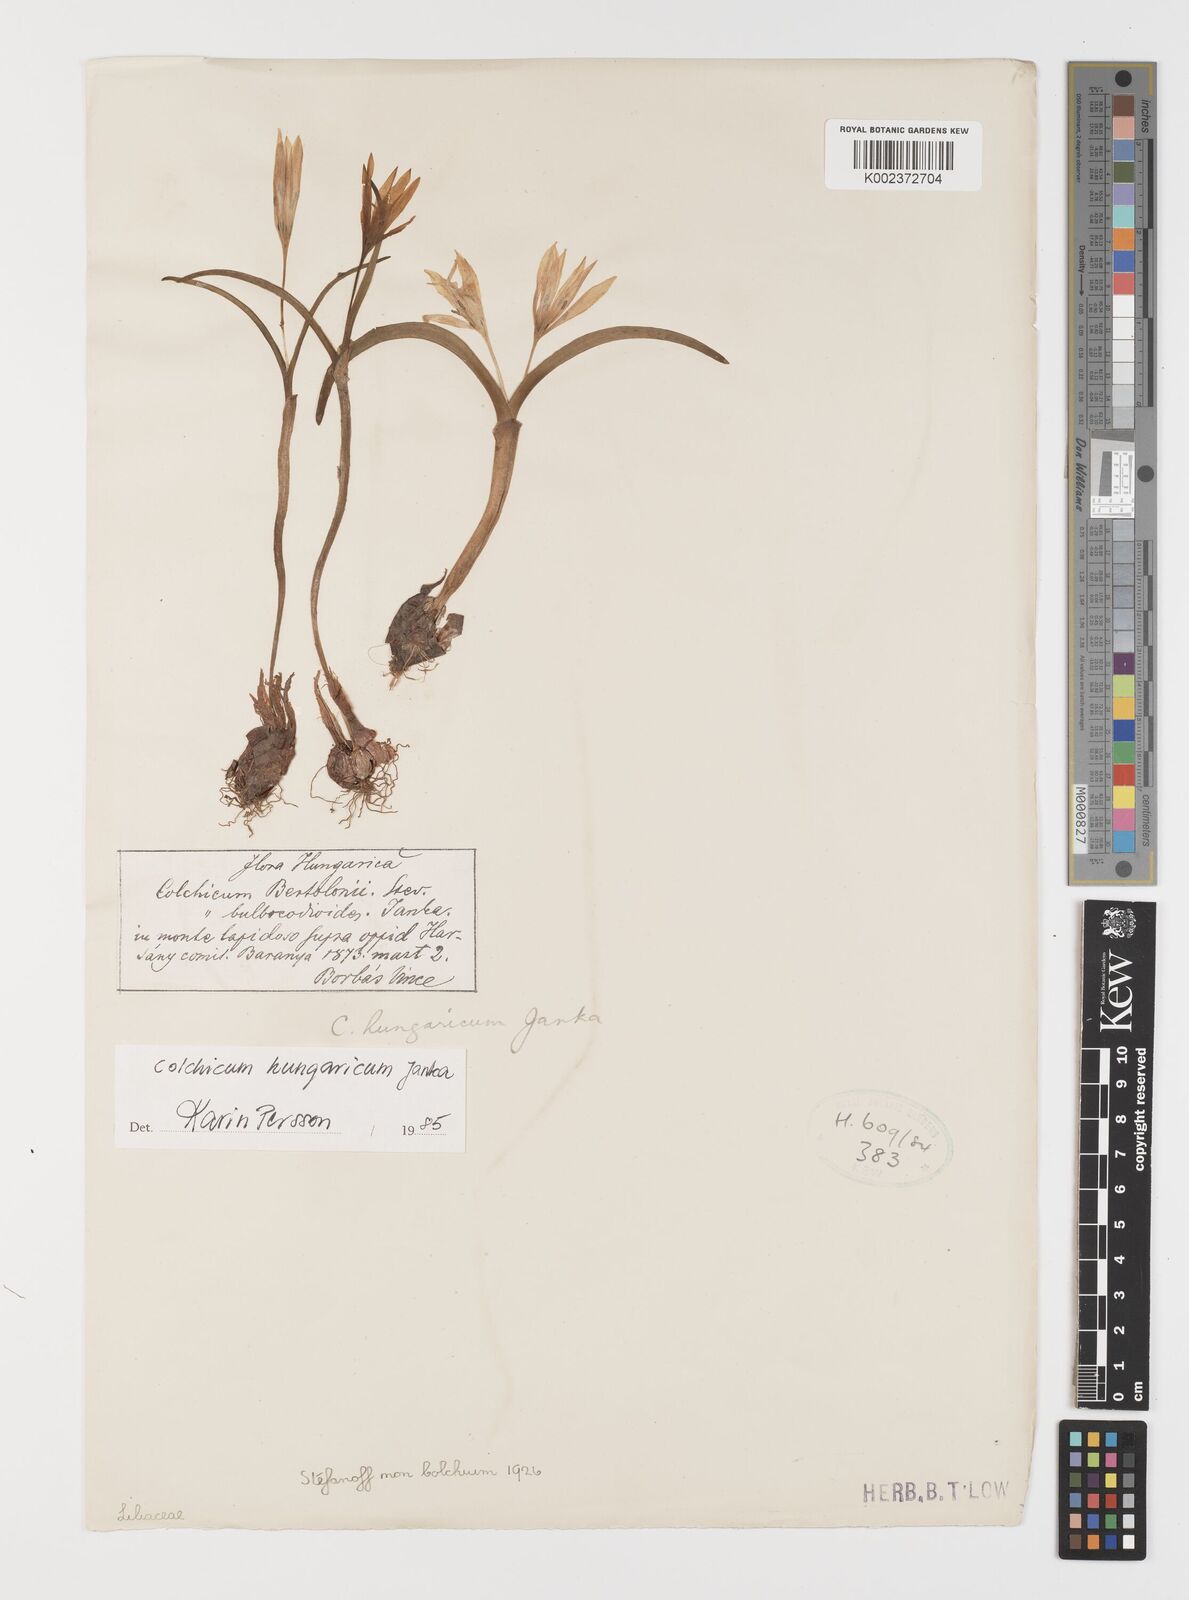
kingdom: Plantae
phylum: Tracheophyta
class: Liliopsida
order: Liliales
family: Colchicaceae
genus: Colchicum
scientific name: Colchicum hungaricum
